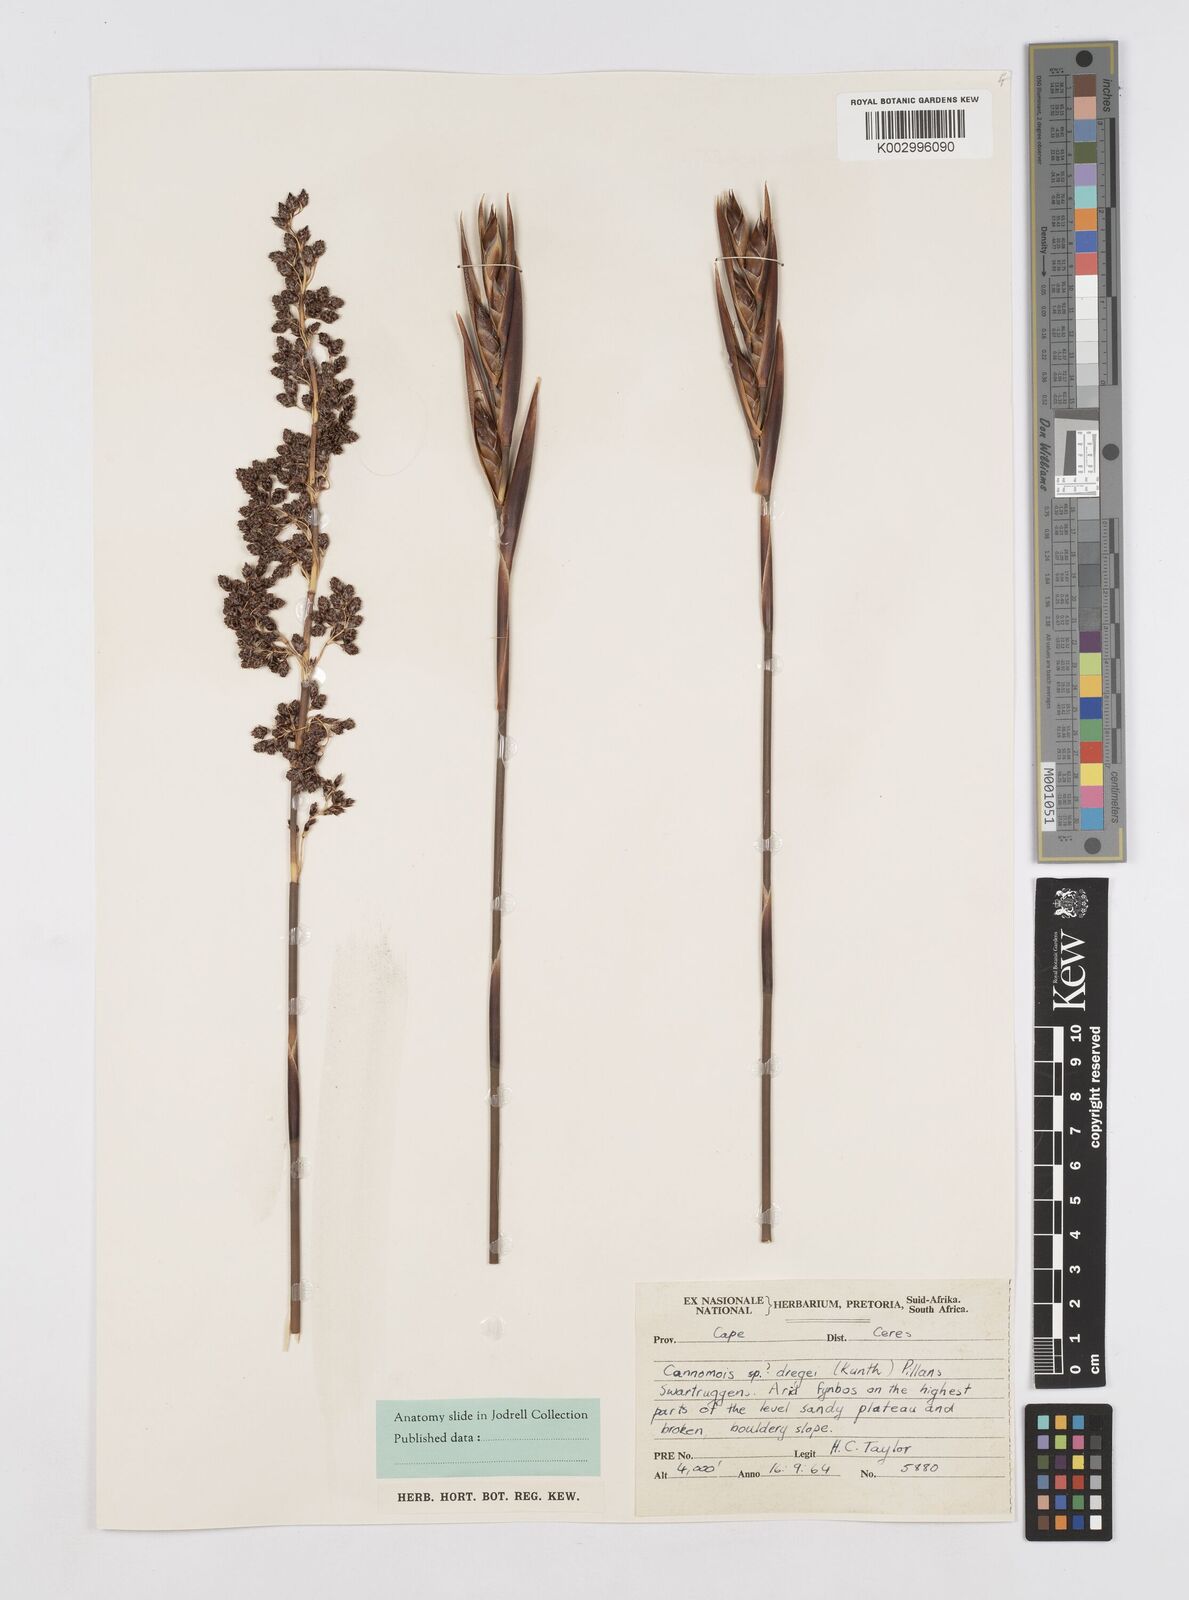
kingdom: Plantae
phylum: Tracheophyta
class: Liliopsida
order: Poales
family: Restionaceae
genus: Cannomois
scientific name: Cannomois parviflora
